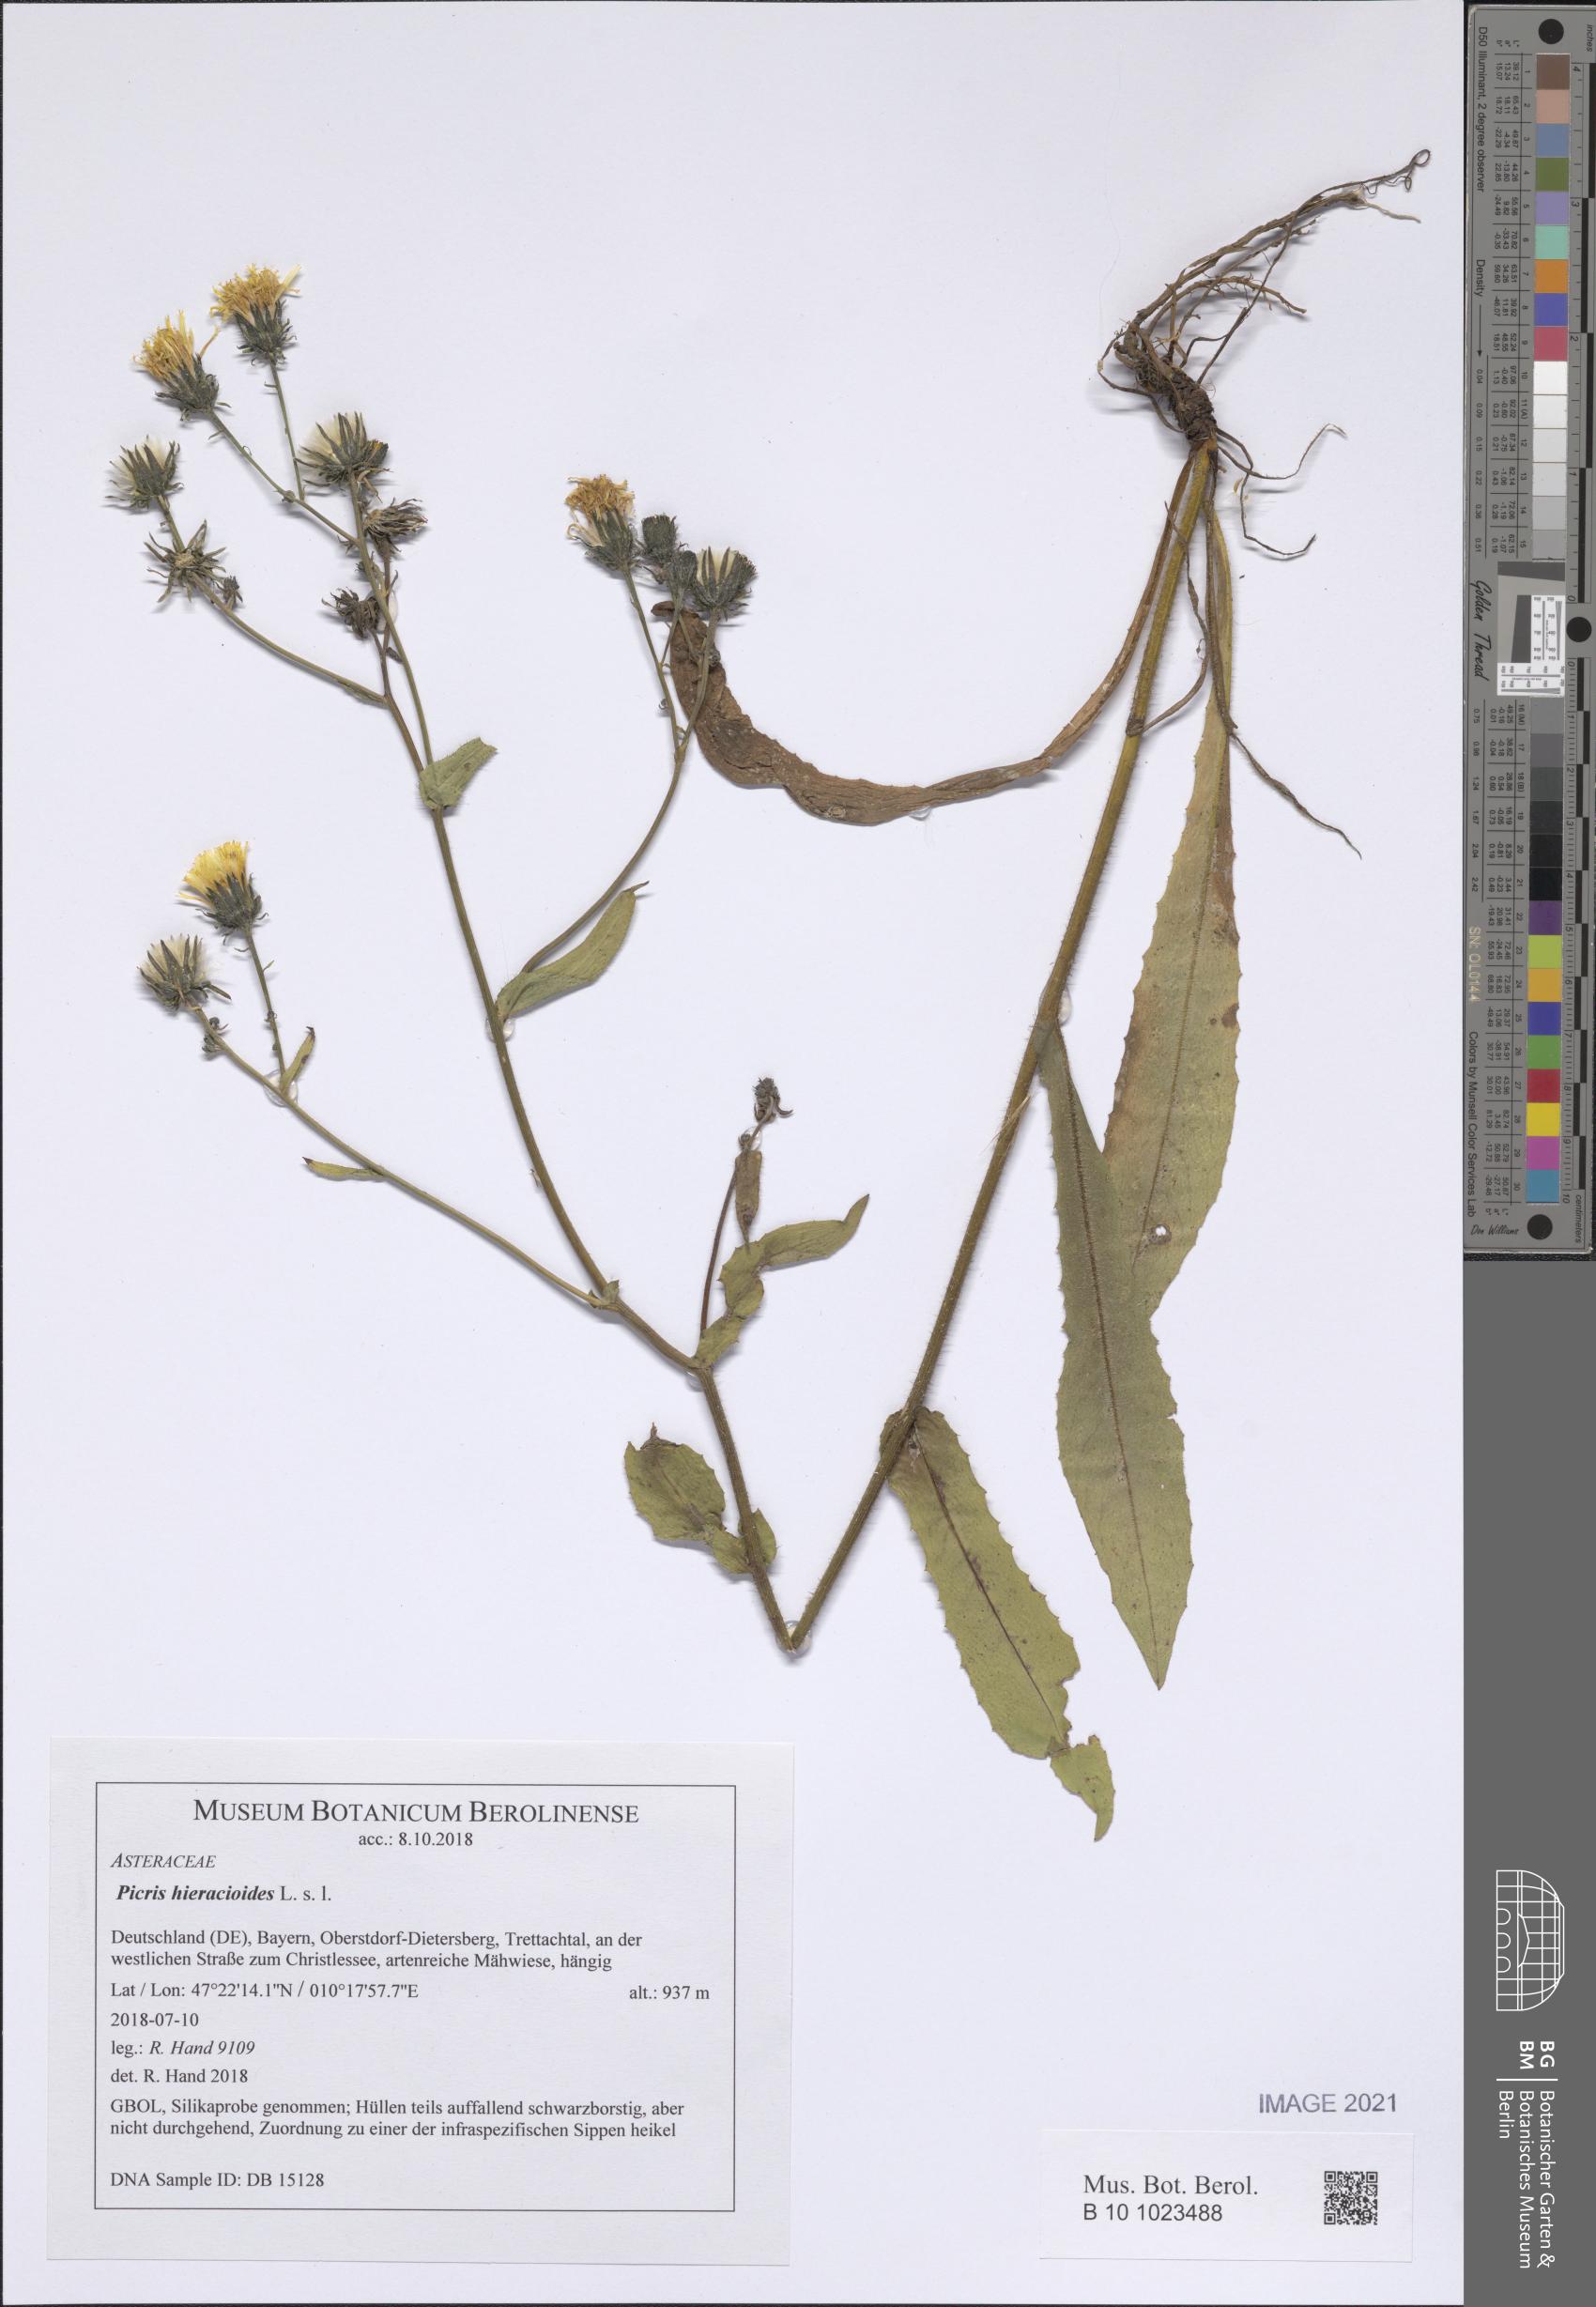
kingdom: Plantae
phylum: Tracheophyta
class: Magnoliopsida
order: Asterales
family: Asteraceae
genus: Picris
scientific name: Picris hieracioides
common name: Hawkweed oxtongue
